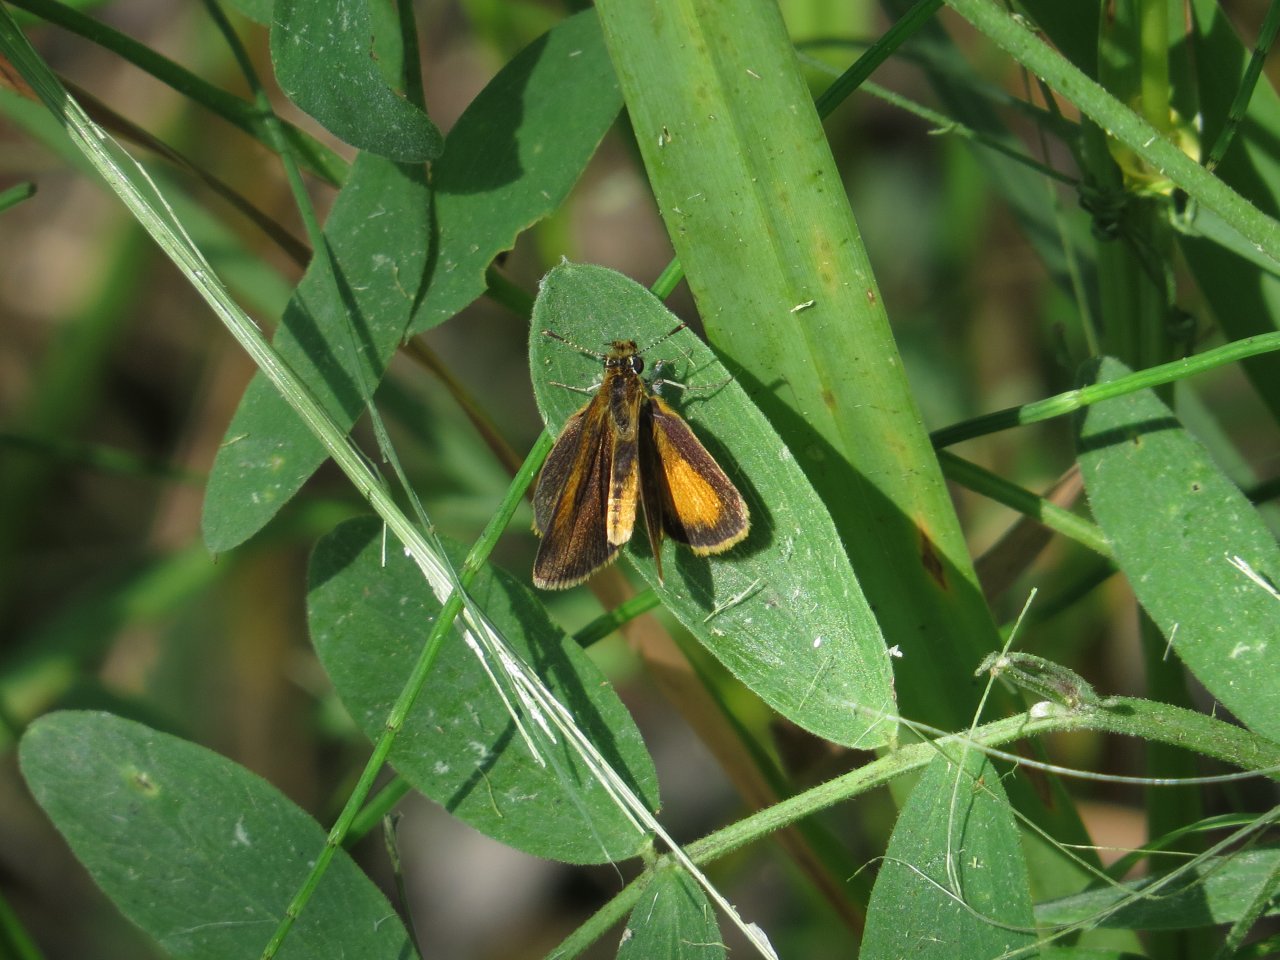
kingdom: Animalia
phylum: Arthropoda
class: Insecta
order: Lepidoptera
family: Hesperiidae
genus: Ancyloxypha
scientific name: Ancyloxypha numitor
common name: Least Skipper
